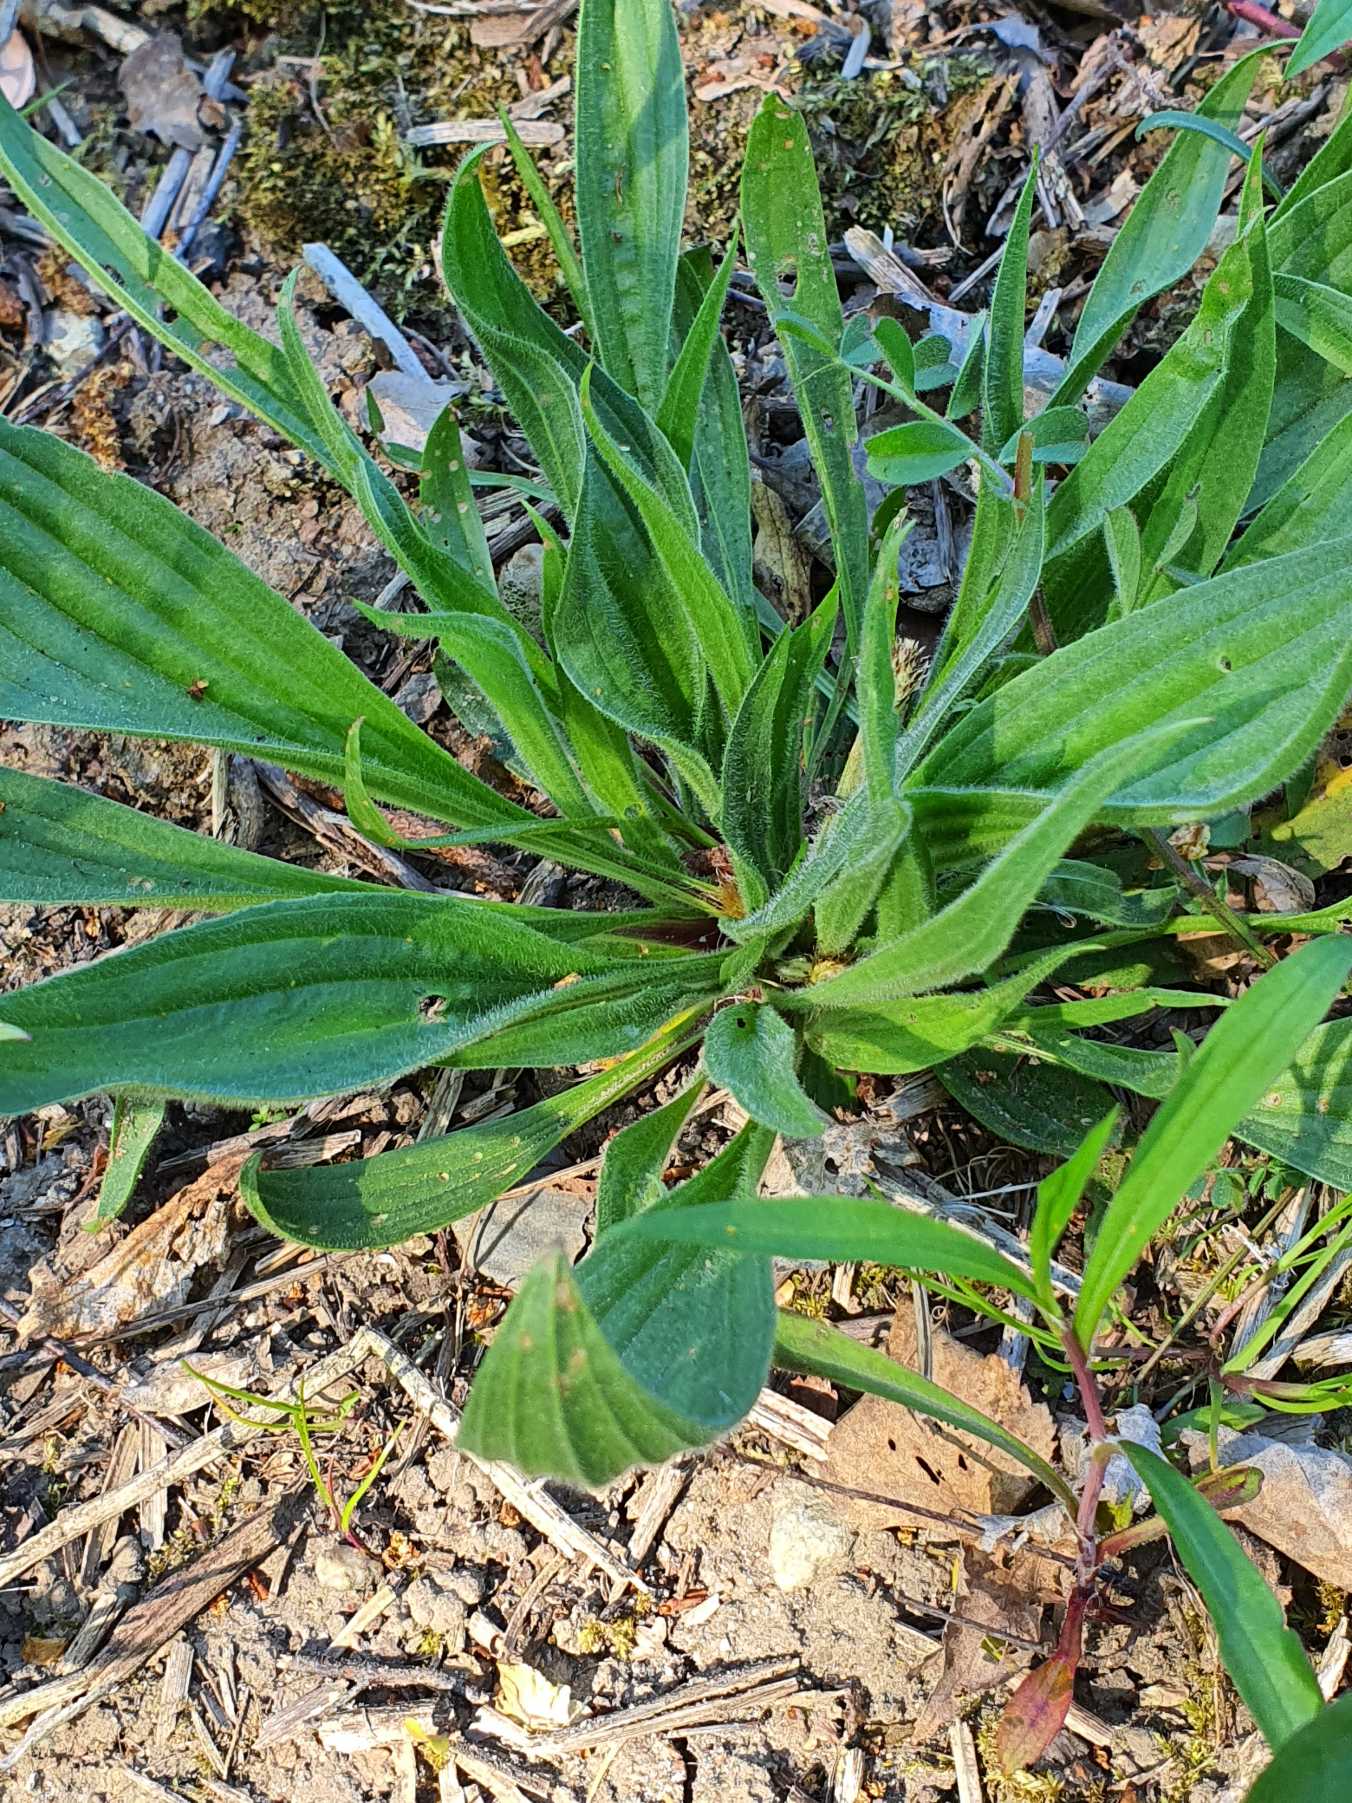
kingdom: Plantae
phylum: Tracheophyta
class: Magnoliopsida
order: Lamiales
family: Plantaginaceae
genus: Plantago
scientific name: Plantago lanceolata
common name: Lancet-vejbred
